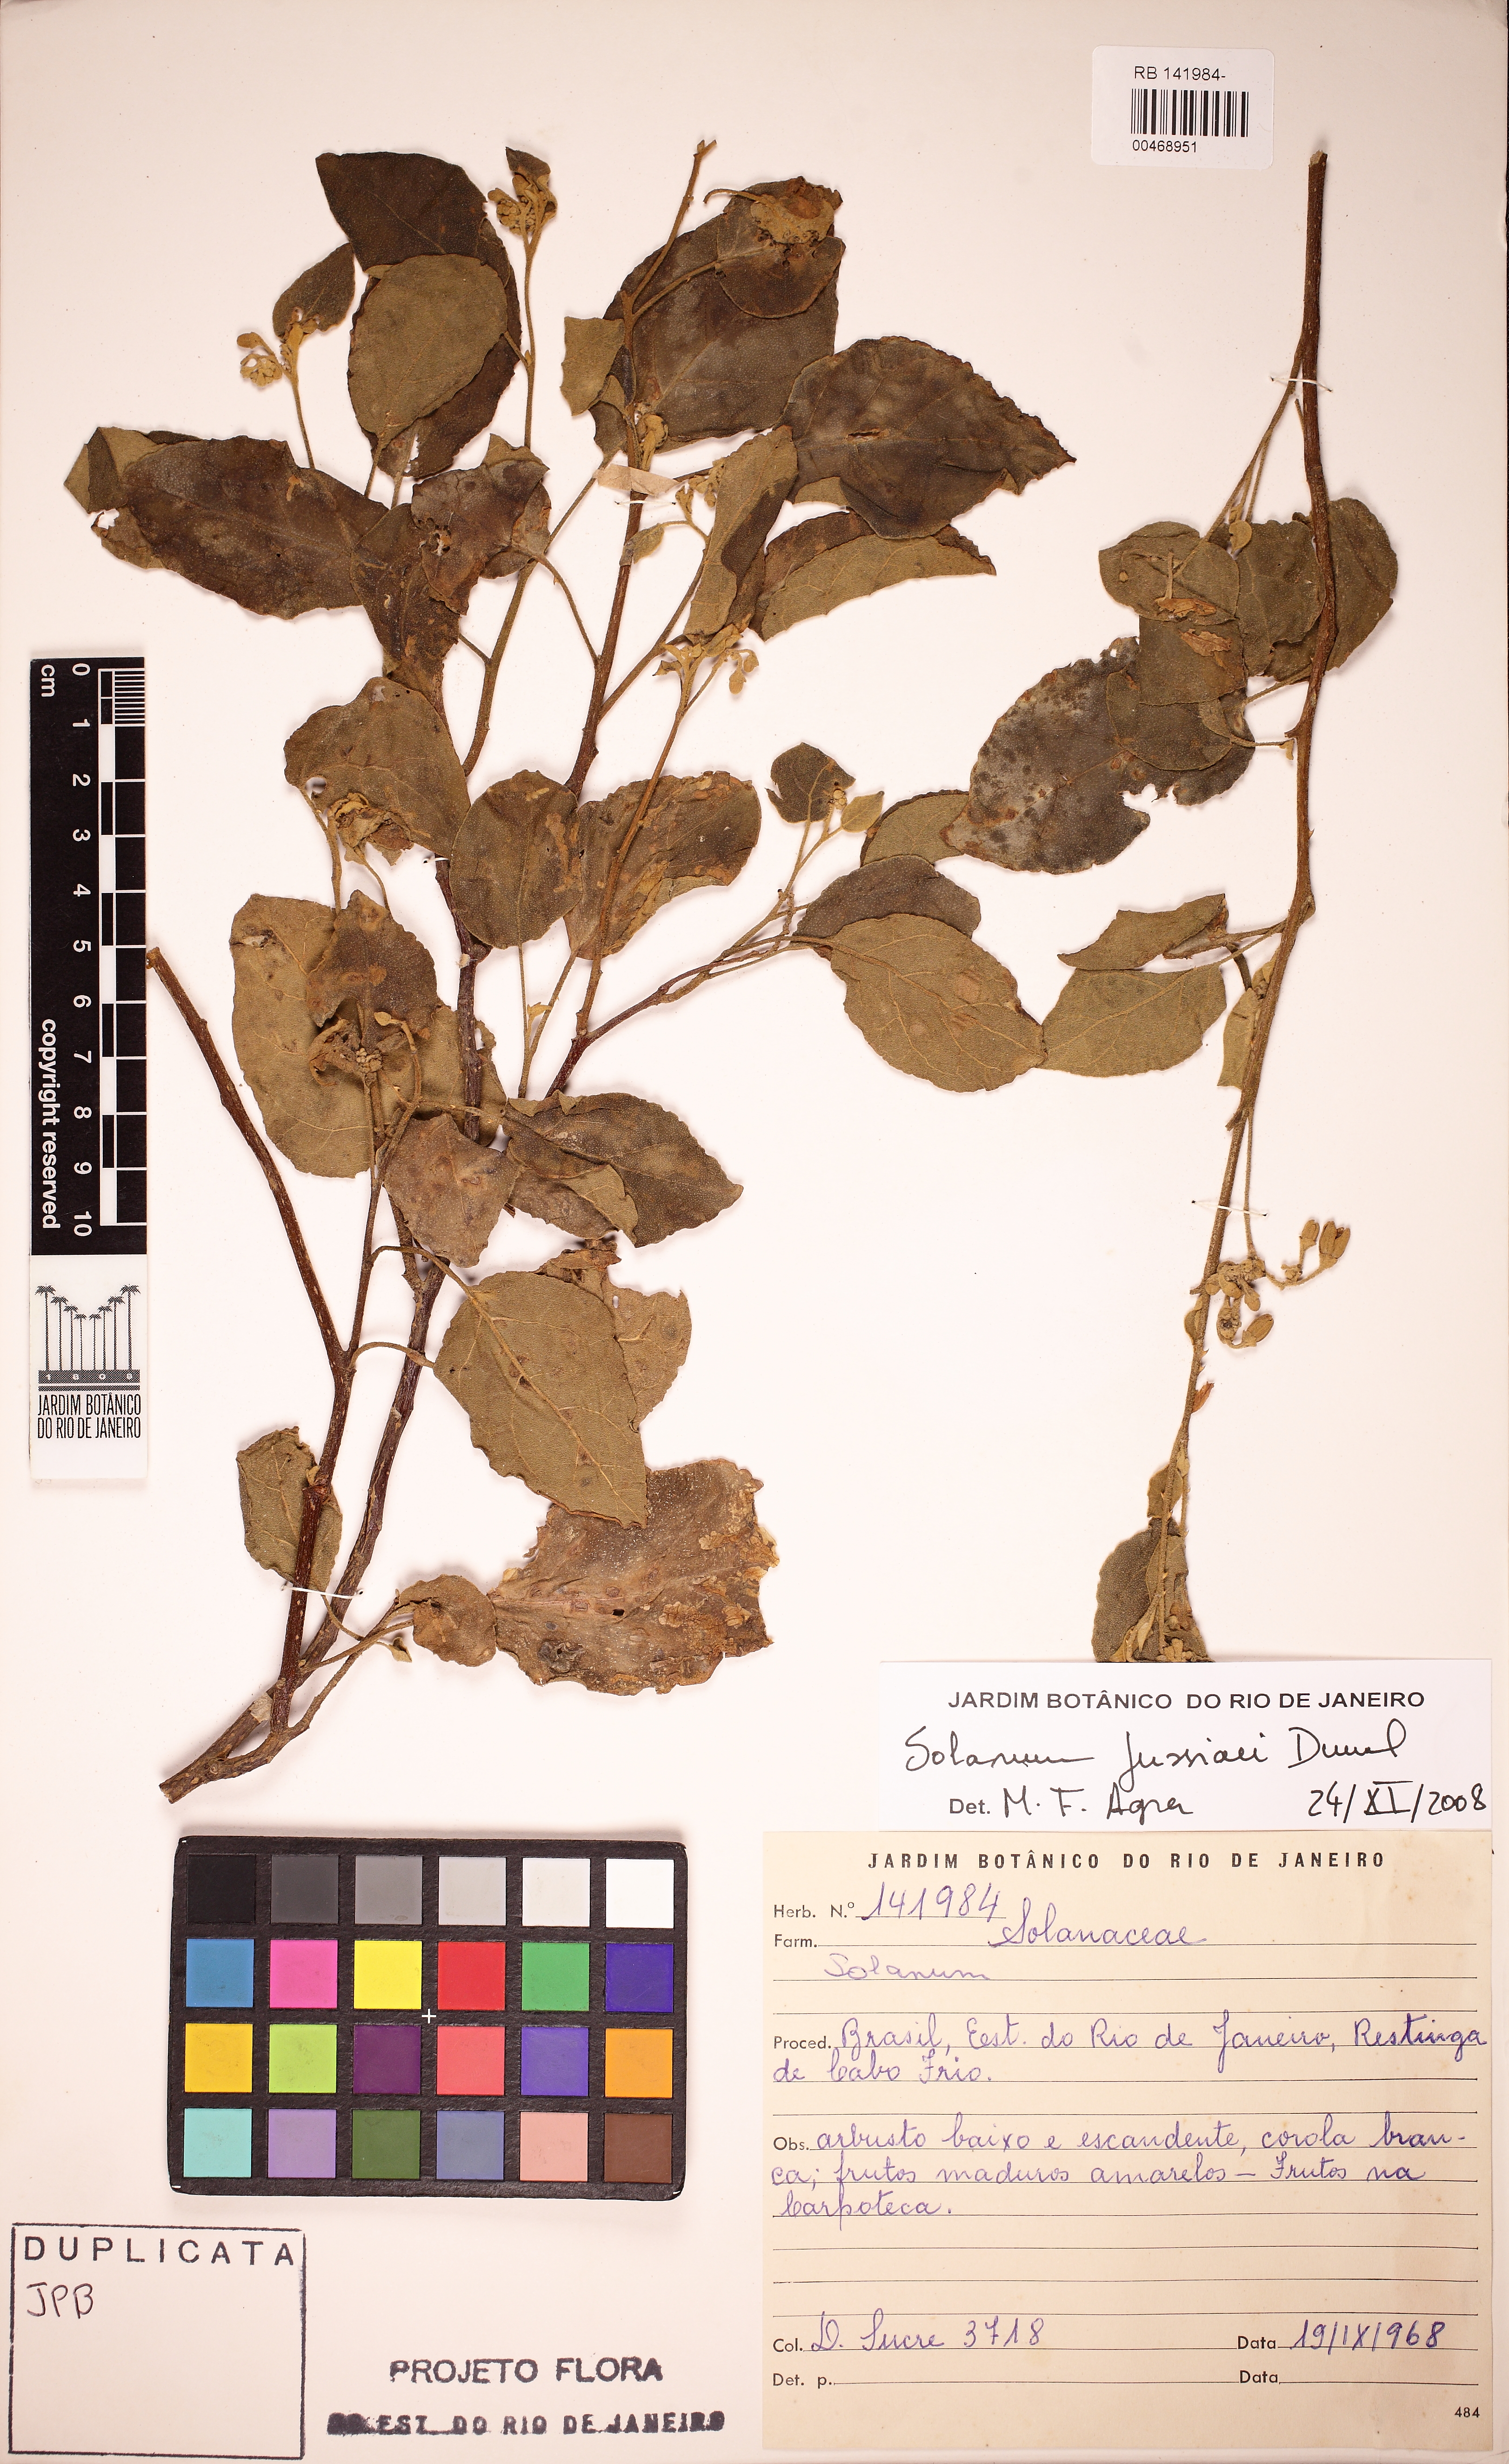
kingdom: Plantae
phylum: Tracheophyta
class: Magnoliopsida
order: Solanales
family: Solanaceae
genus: Solanum
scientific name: Solanum jussiaei
